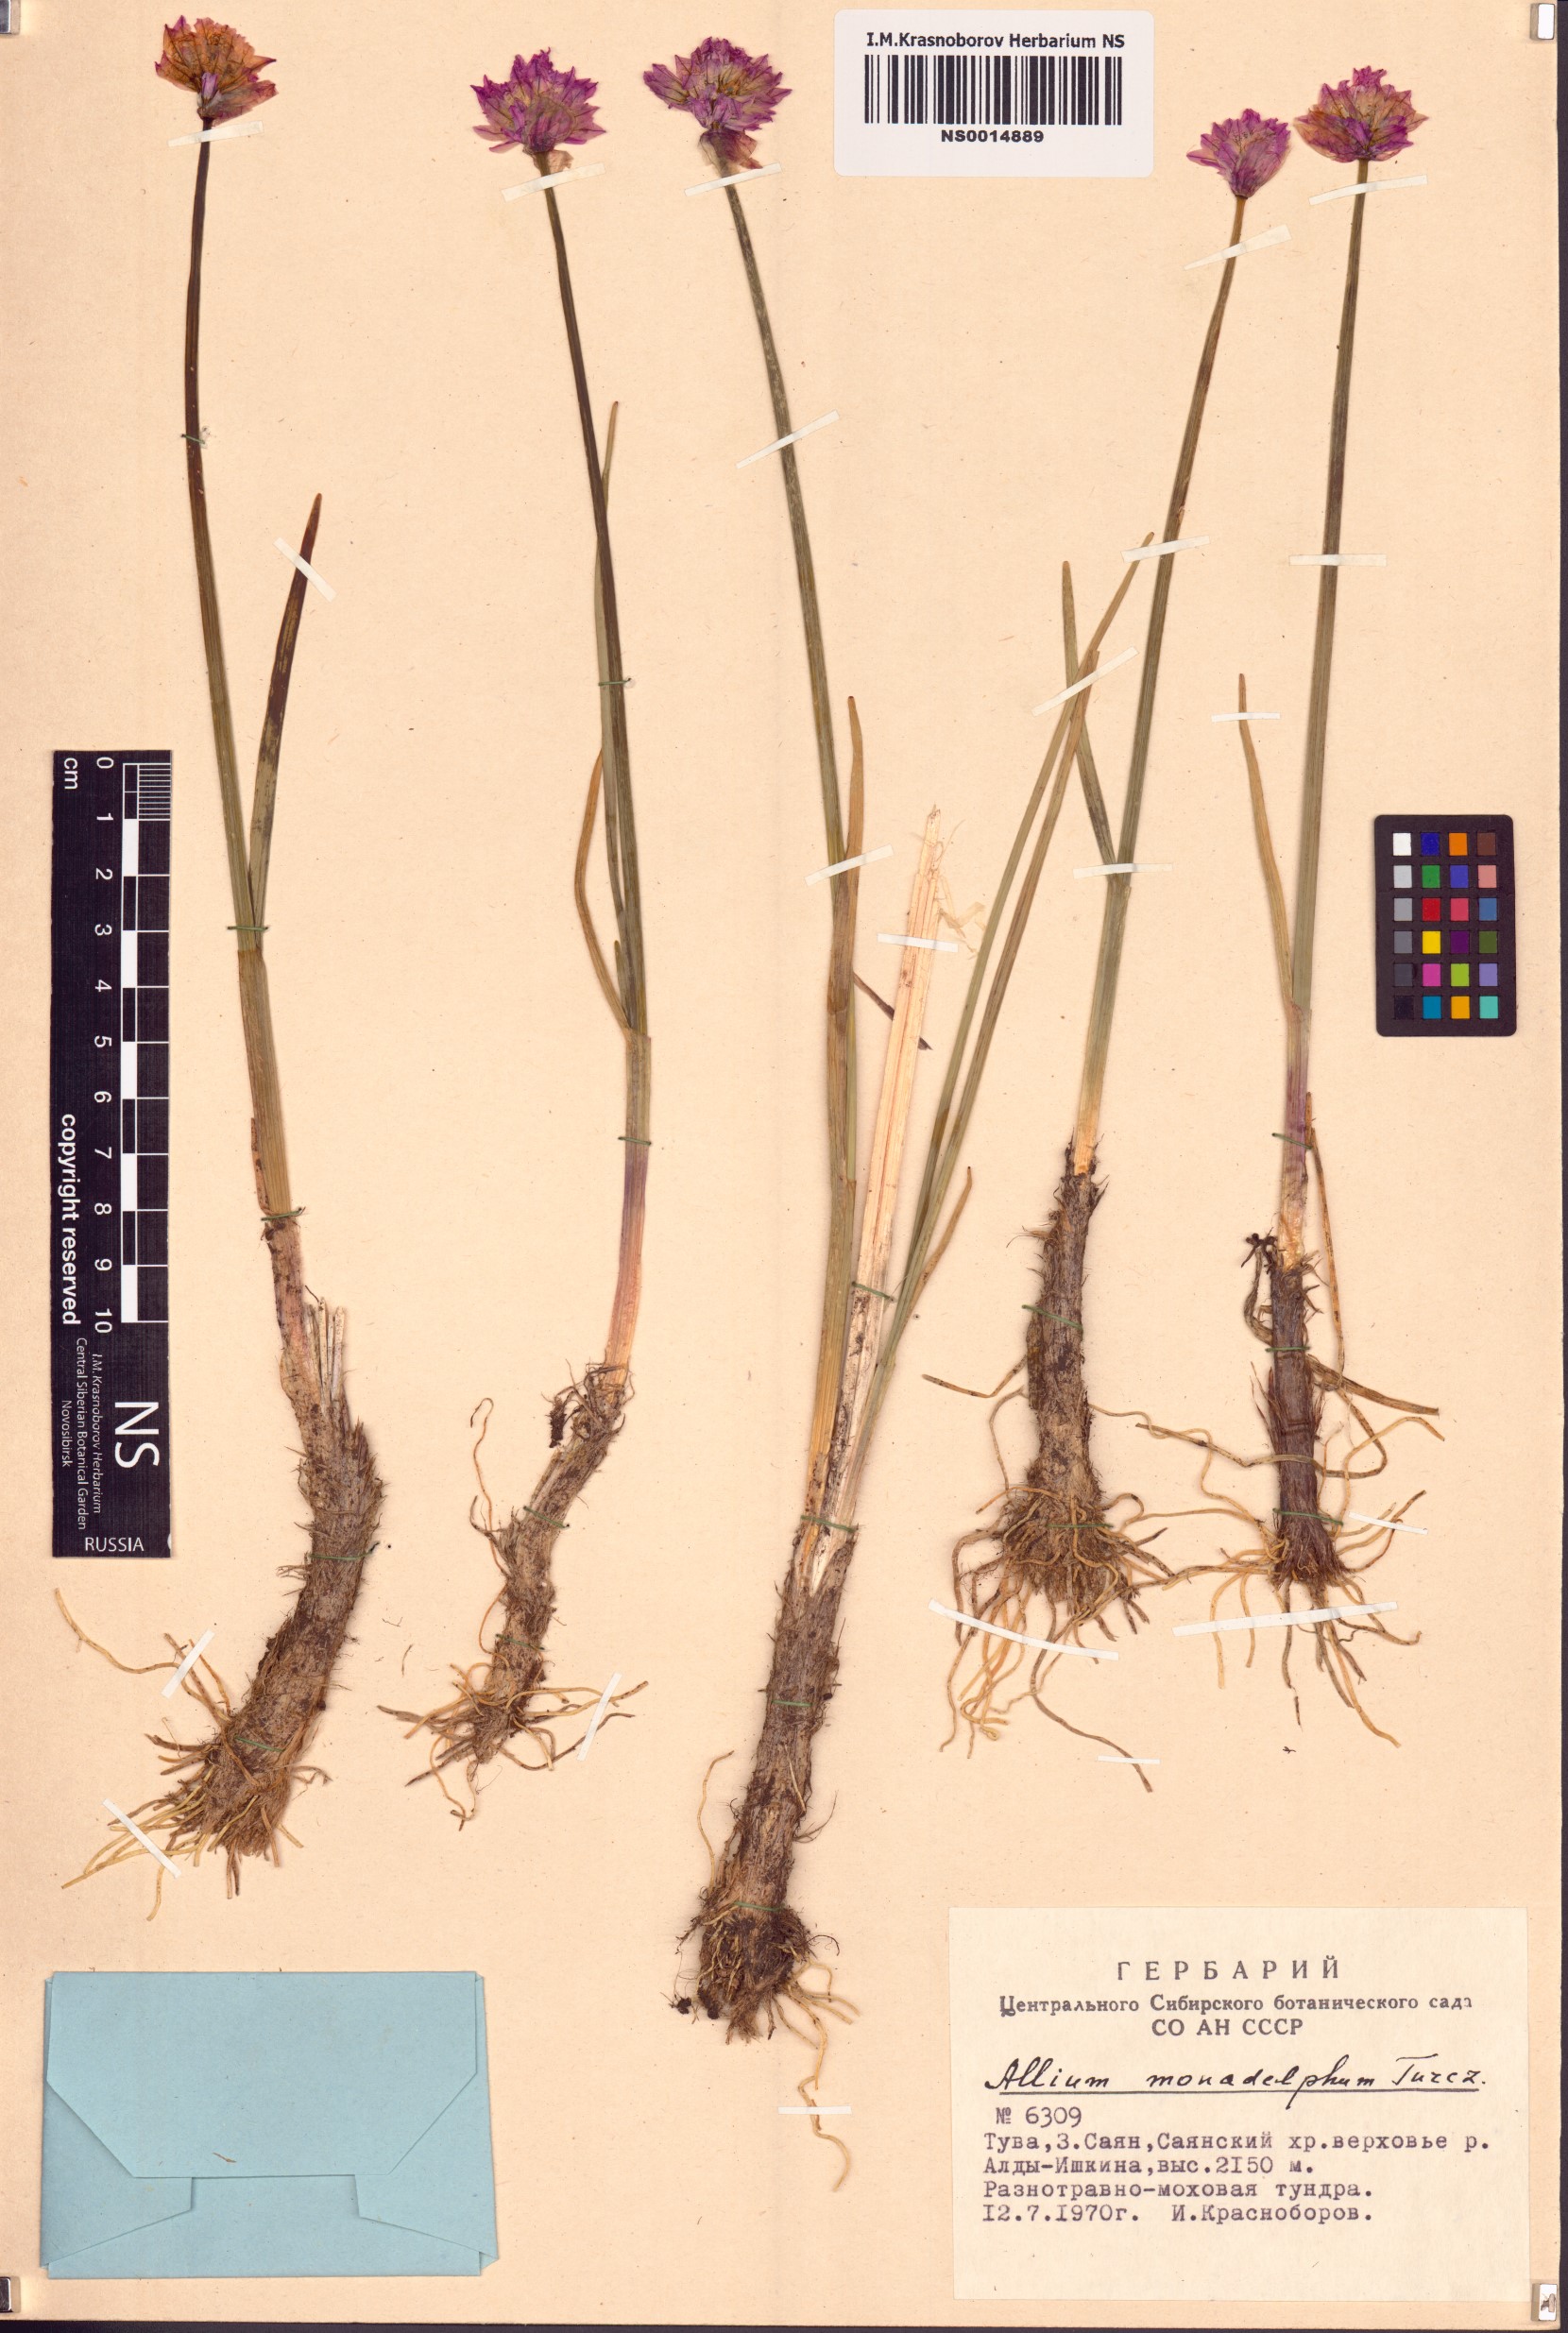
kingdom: Plantae
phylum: Tracheophyta
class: Liliopsida
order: Asparagales
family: Amaryllidaceae
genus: Allium
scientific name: Allium atrosanguineum
